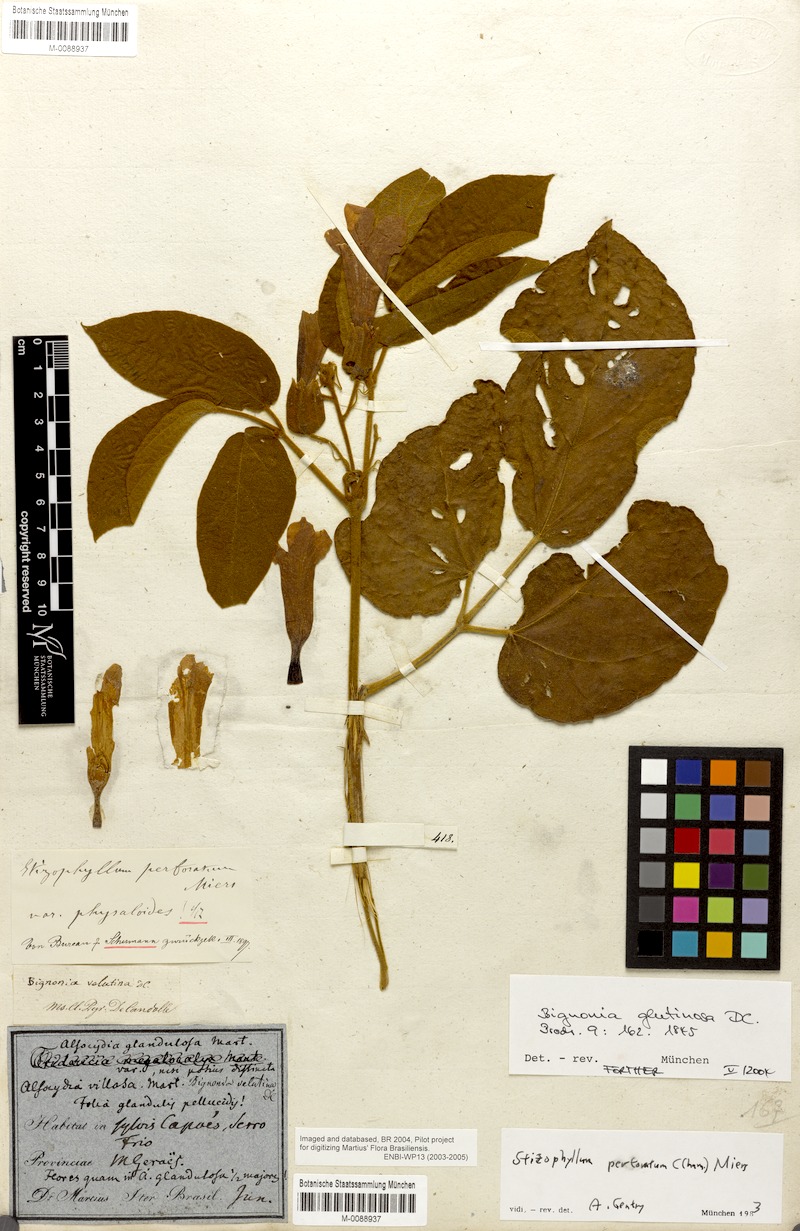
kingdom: Plantae
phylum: Tracheophyta
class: Magnoliopsida
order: Lamiales
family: Bignoniaceae
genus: Stizophyllum
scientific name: Stizophyllum perforatum
